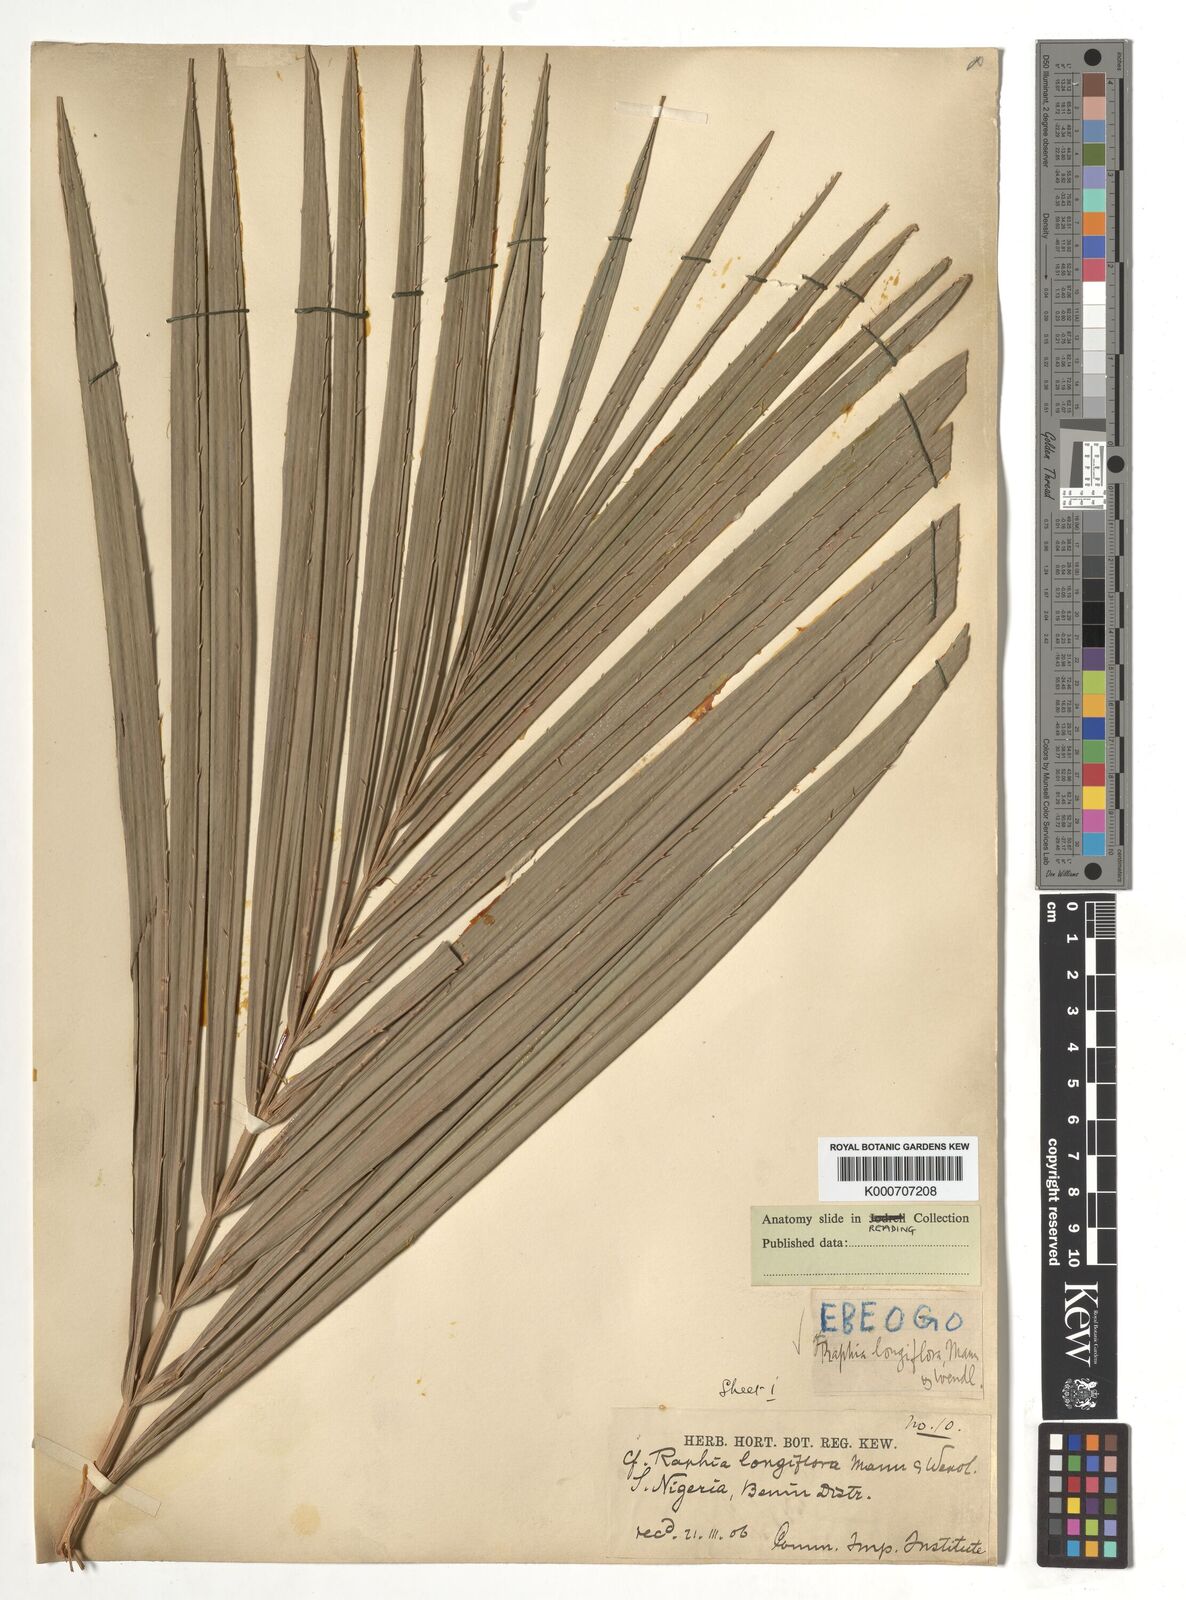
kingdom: Plantae
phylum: Tracheophyta
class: Liliopsida
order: Arecales
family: Arecaceae
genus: Raphia
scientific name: Raphia
